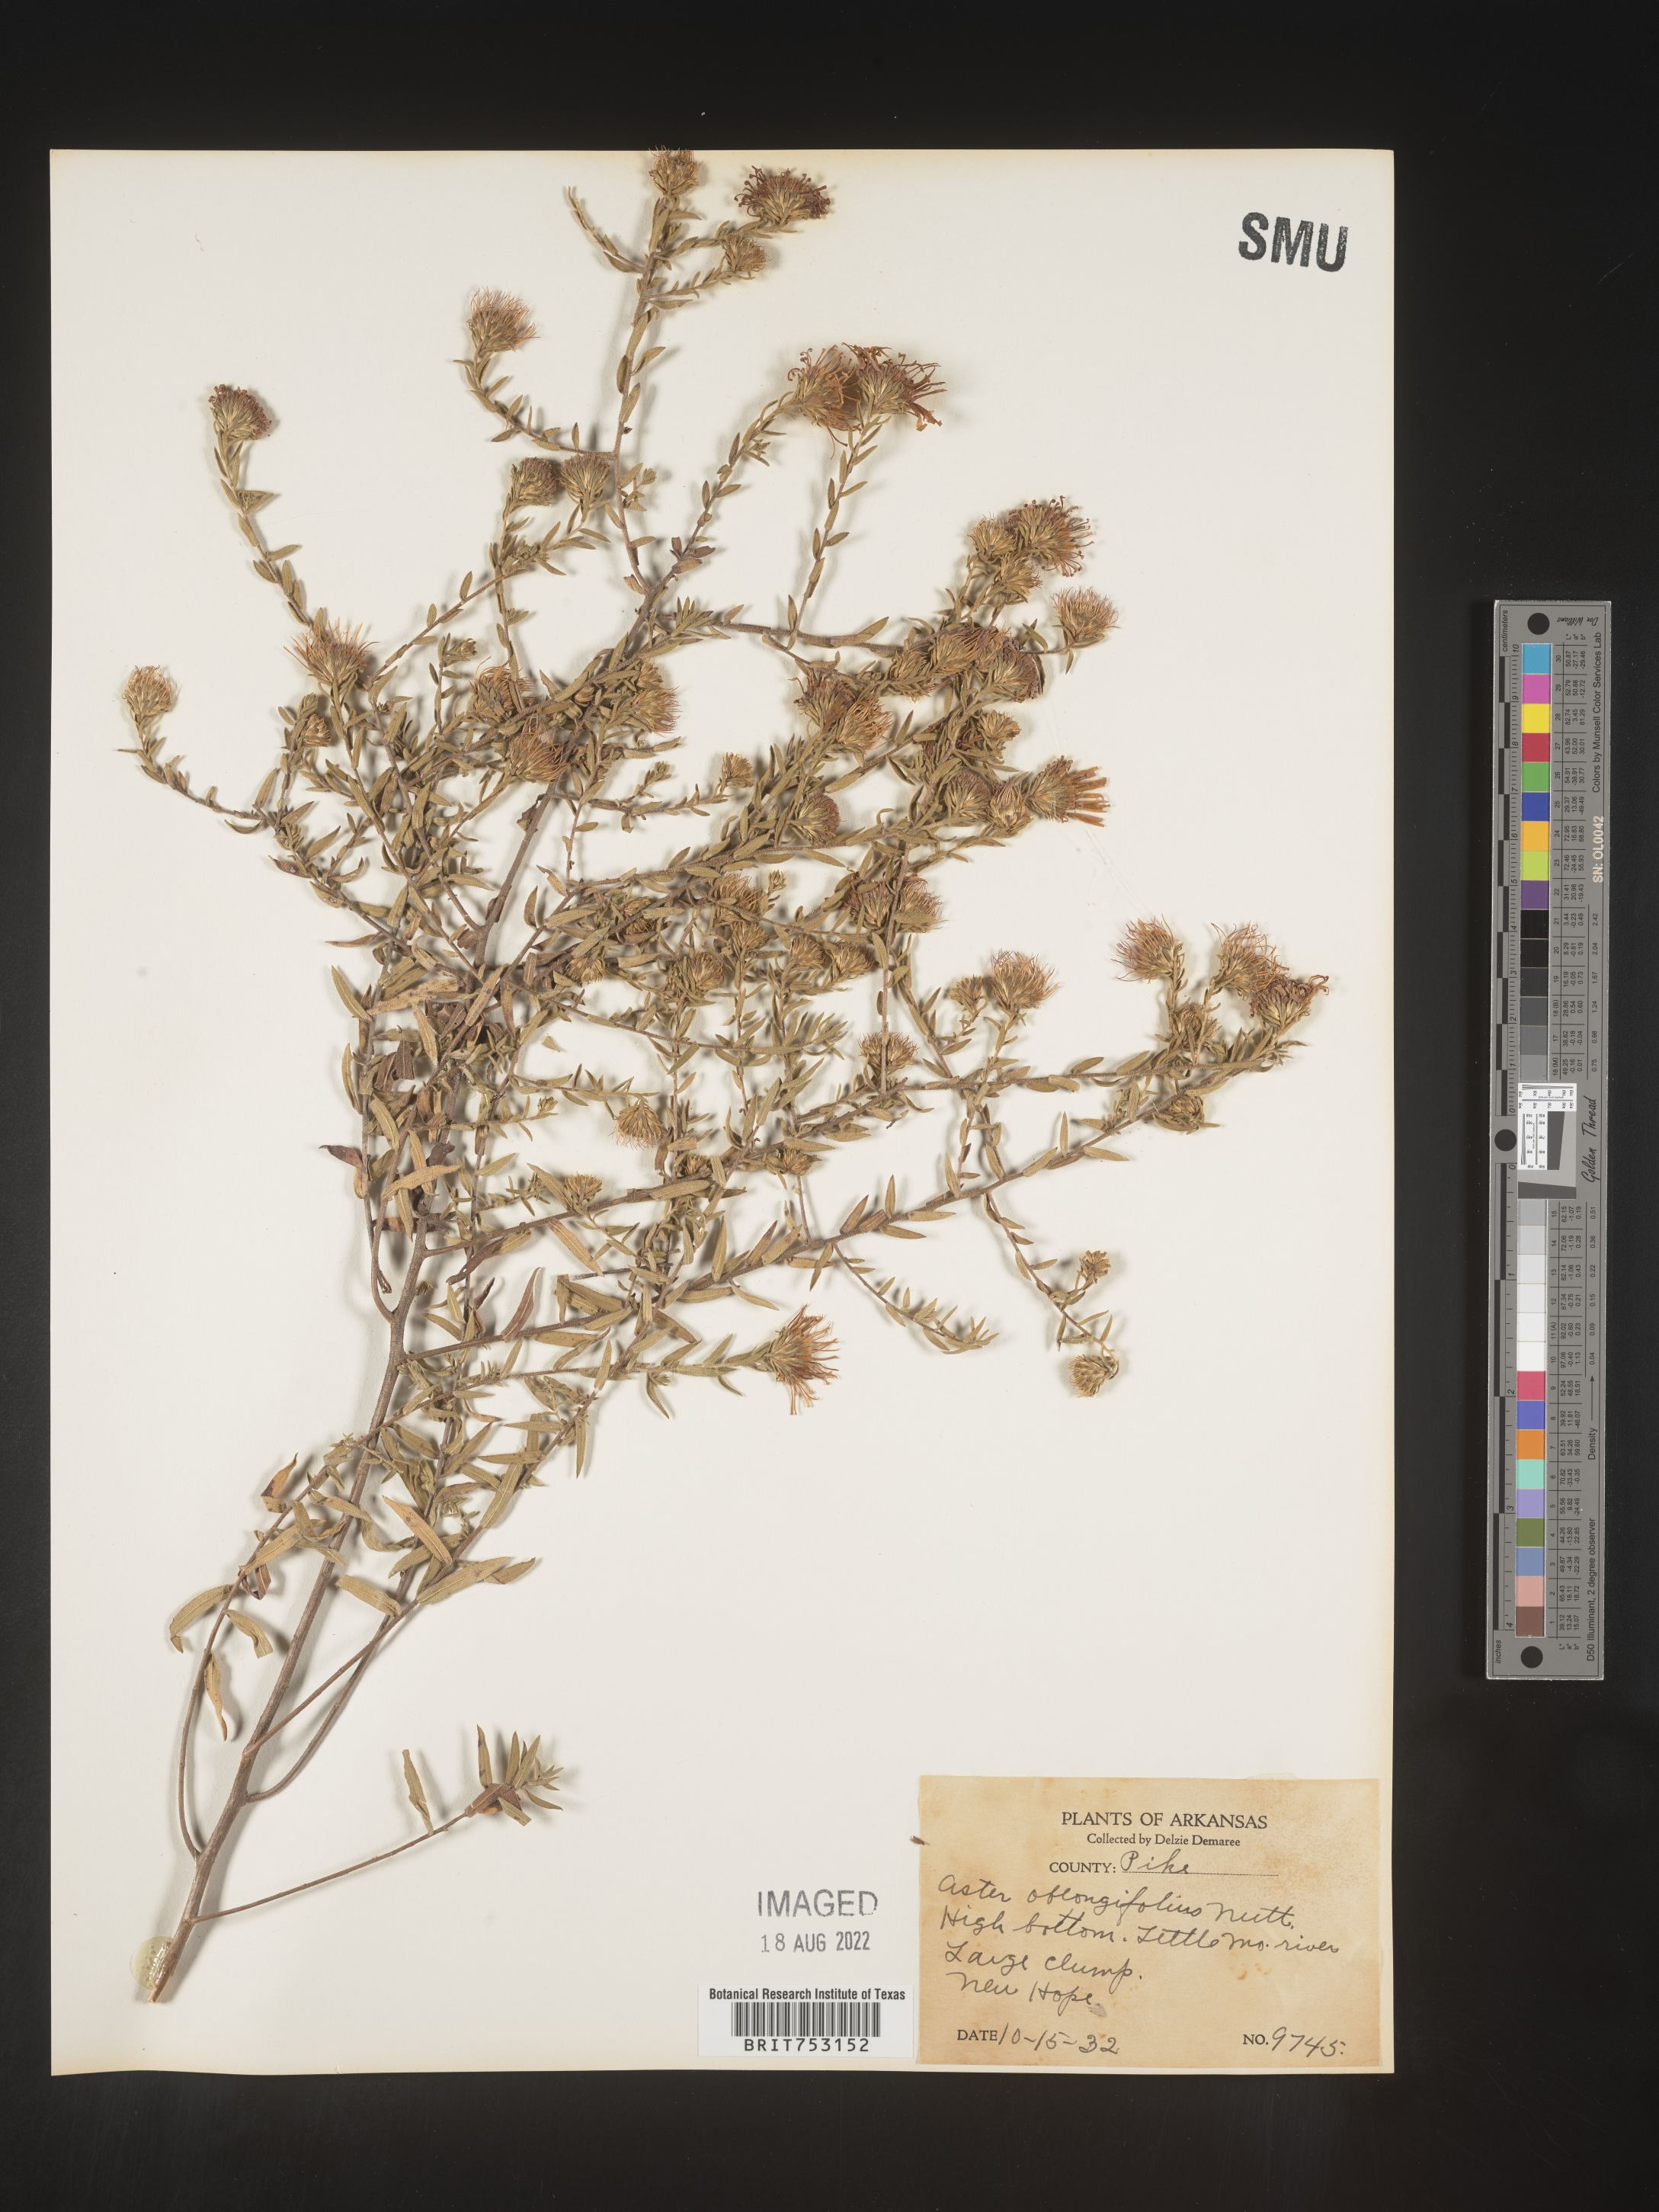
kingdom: Plantae
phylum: Tracheophyta
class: Magnoliopsida
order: Asterales
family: Asteraceae
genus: Symphyotrichum
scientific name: Symphyotrichum oblongifolium
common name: Aromatic aster
